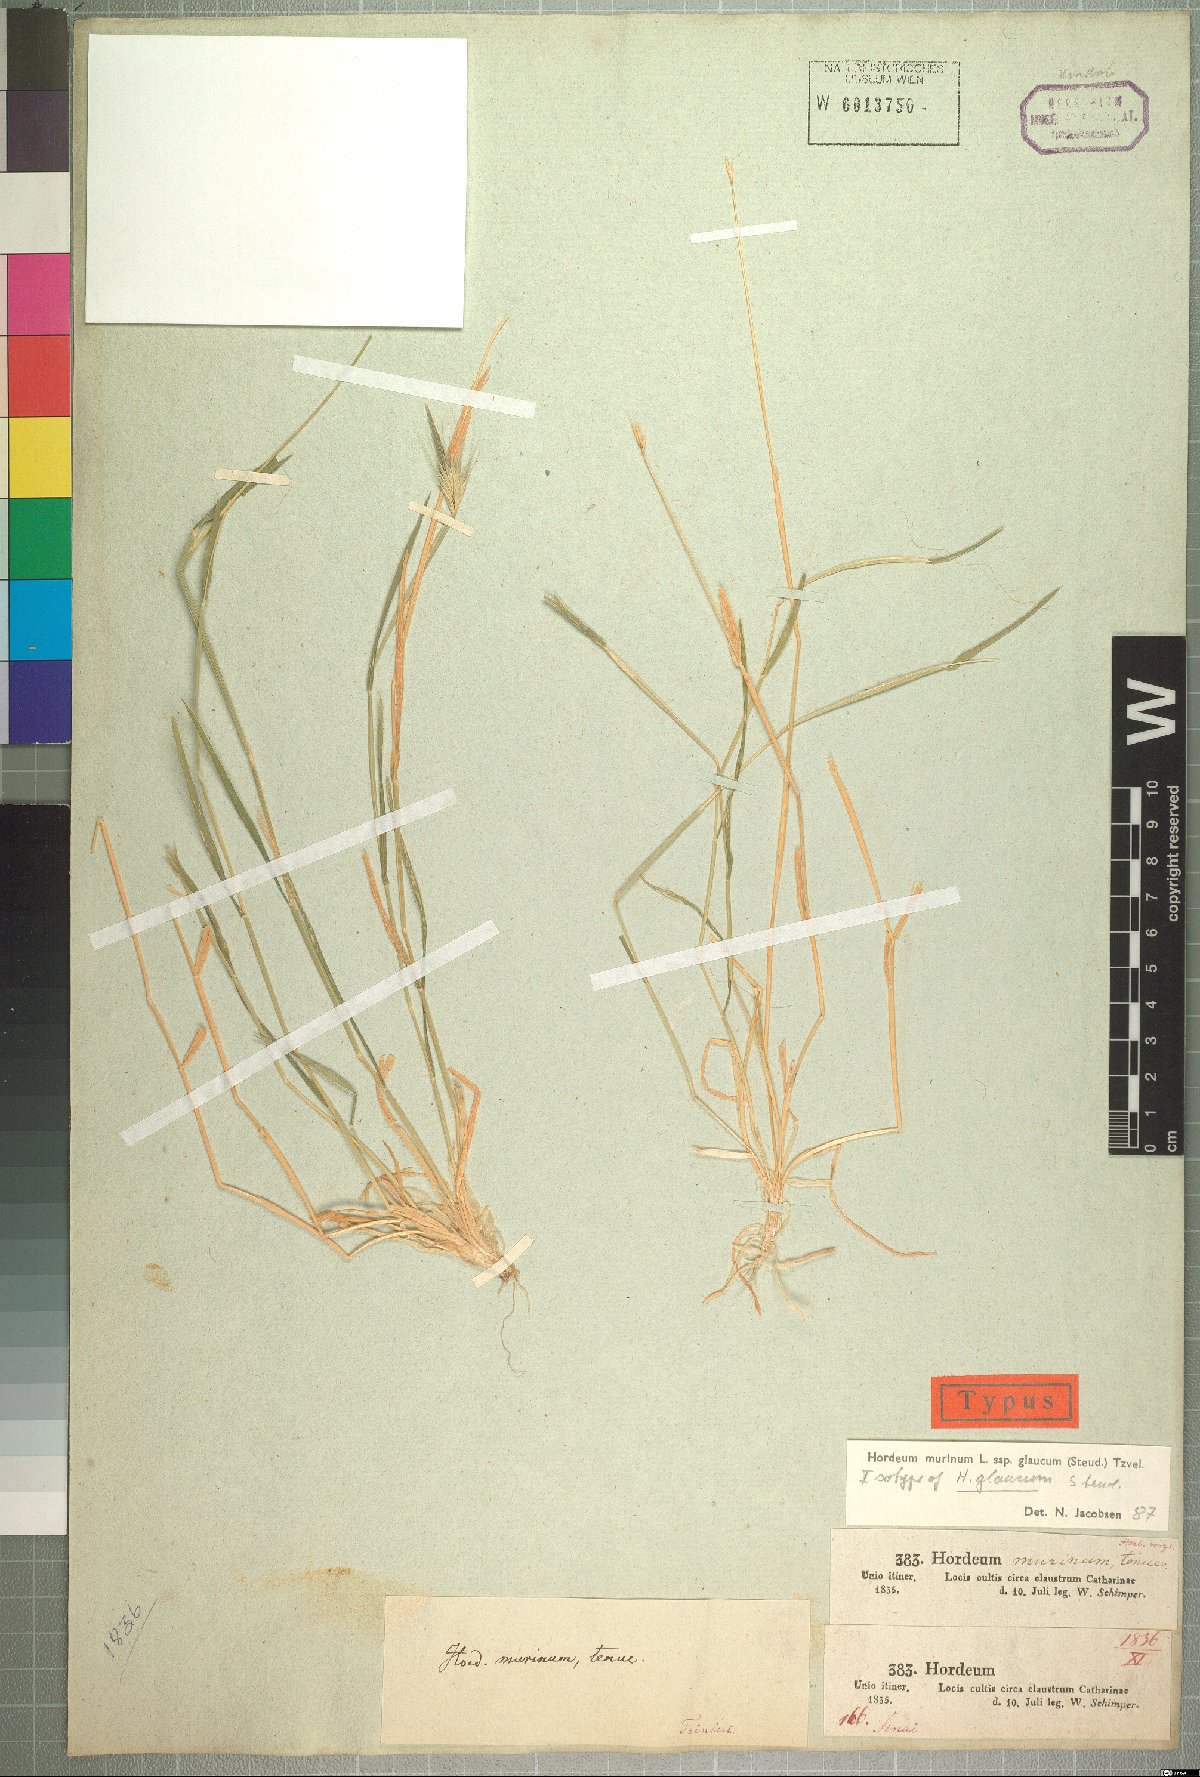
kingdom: Plantae
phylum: Tracheophyta
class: Liliopsida
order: Poales
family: Poaceae
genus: Hordeum
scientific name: Hordeum murinum
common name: Wall barley
